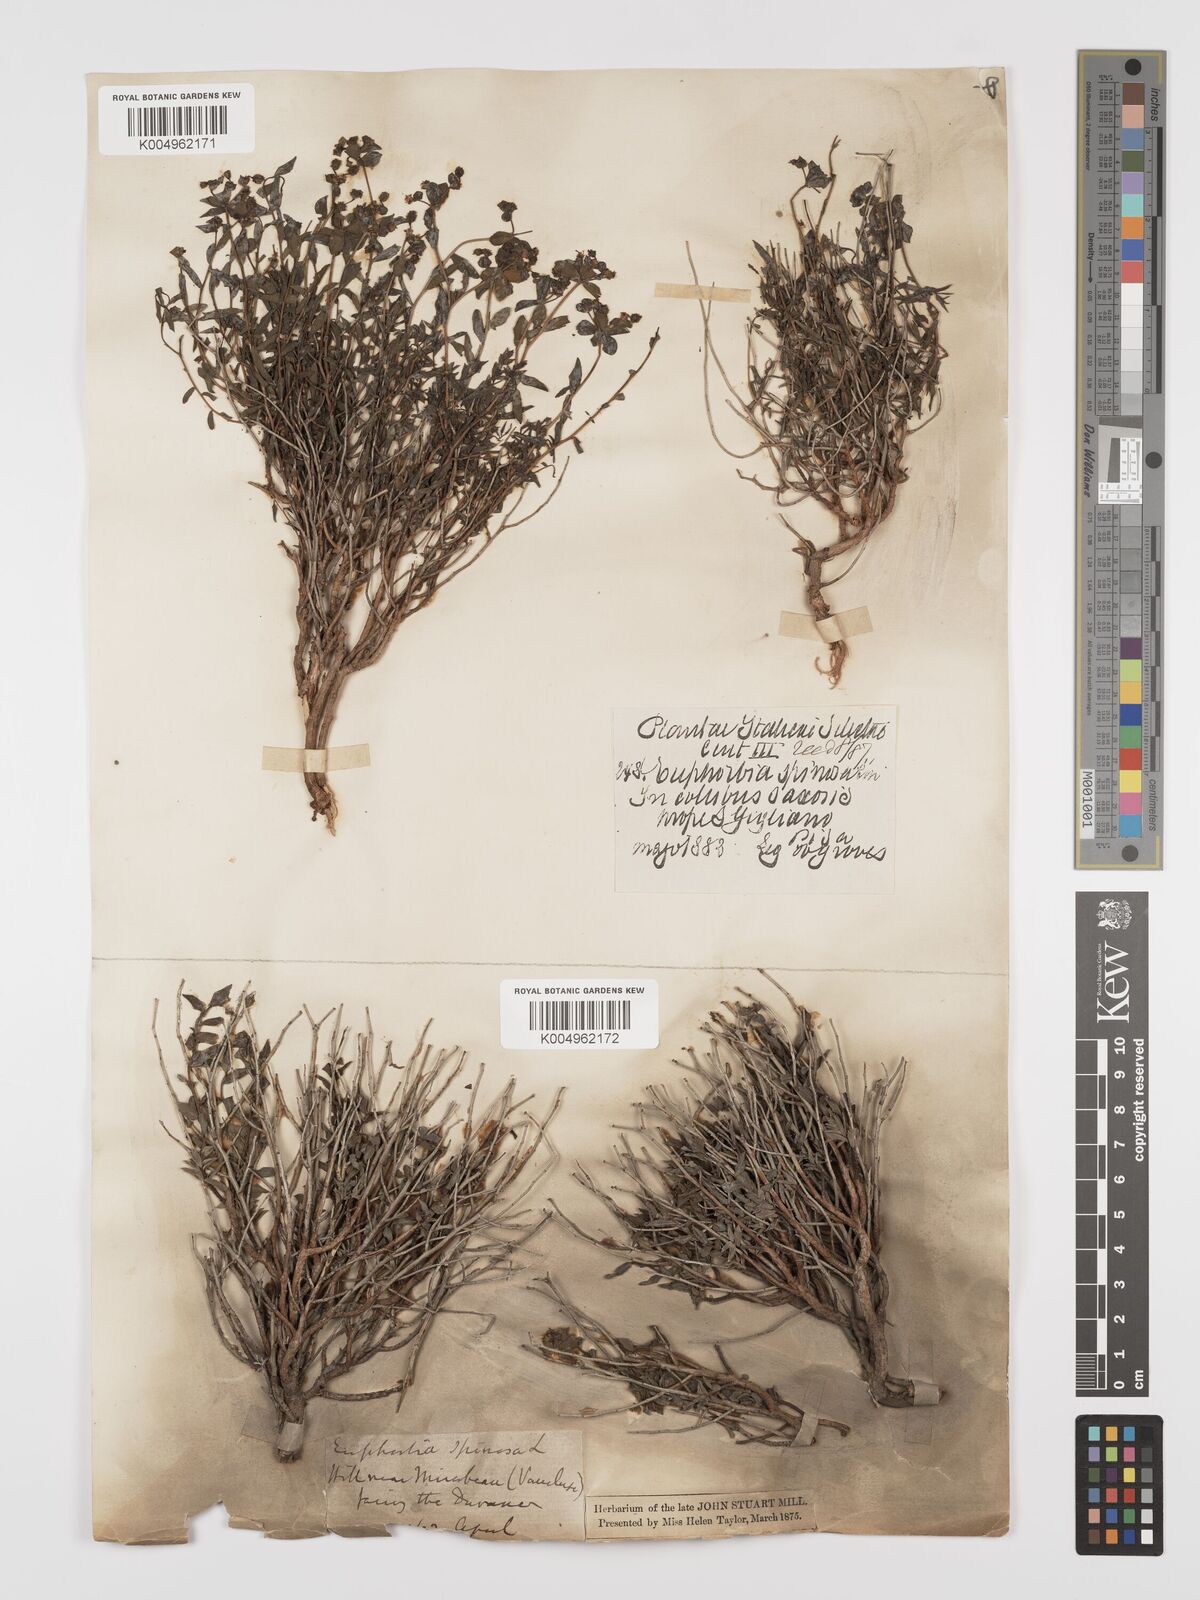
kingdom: Plantae
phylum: Tracheophyta
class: Magnoliopsida
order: Malpighiales
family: Euphorbiaceae
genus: Euphorbia
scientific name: Euphorbia spinosa
